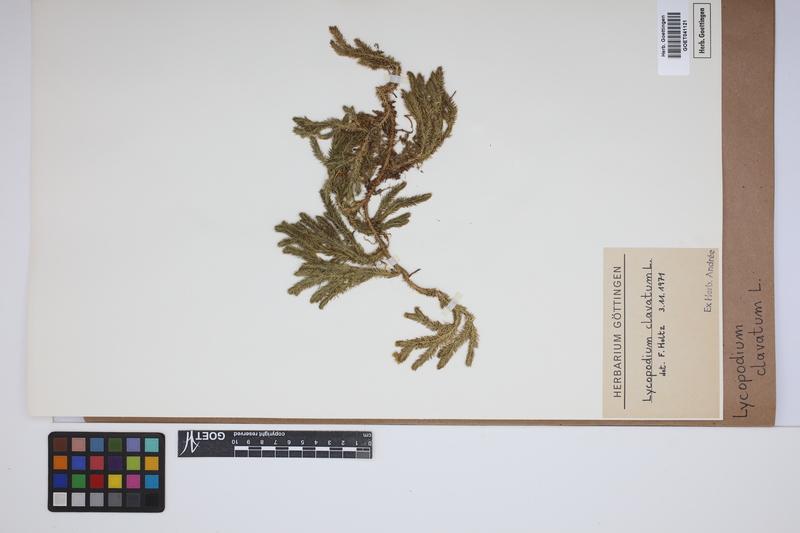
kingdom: Plantae
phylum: Tracheophyta
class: Lycopodiopsida
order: Lycopodiales
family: Lycopodiaceae
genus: Lycopodium
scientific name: Lycopodium clavatum
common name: Stag's-horn clubmoss
